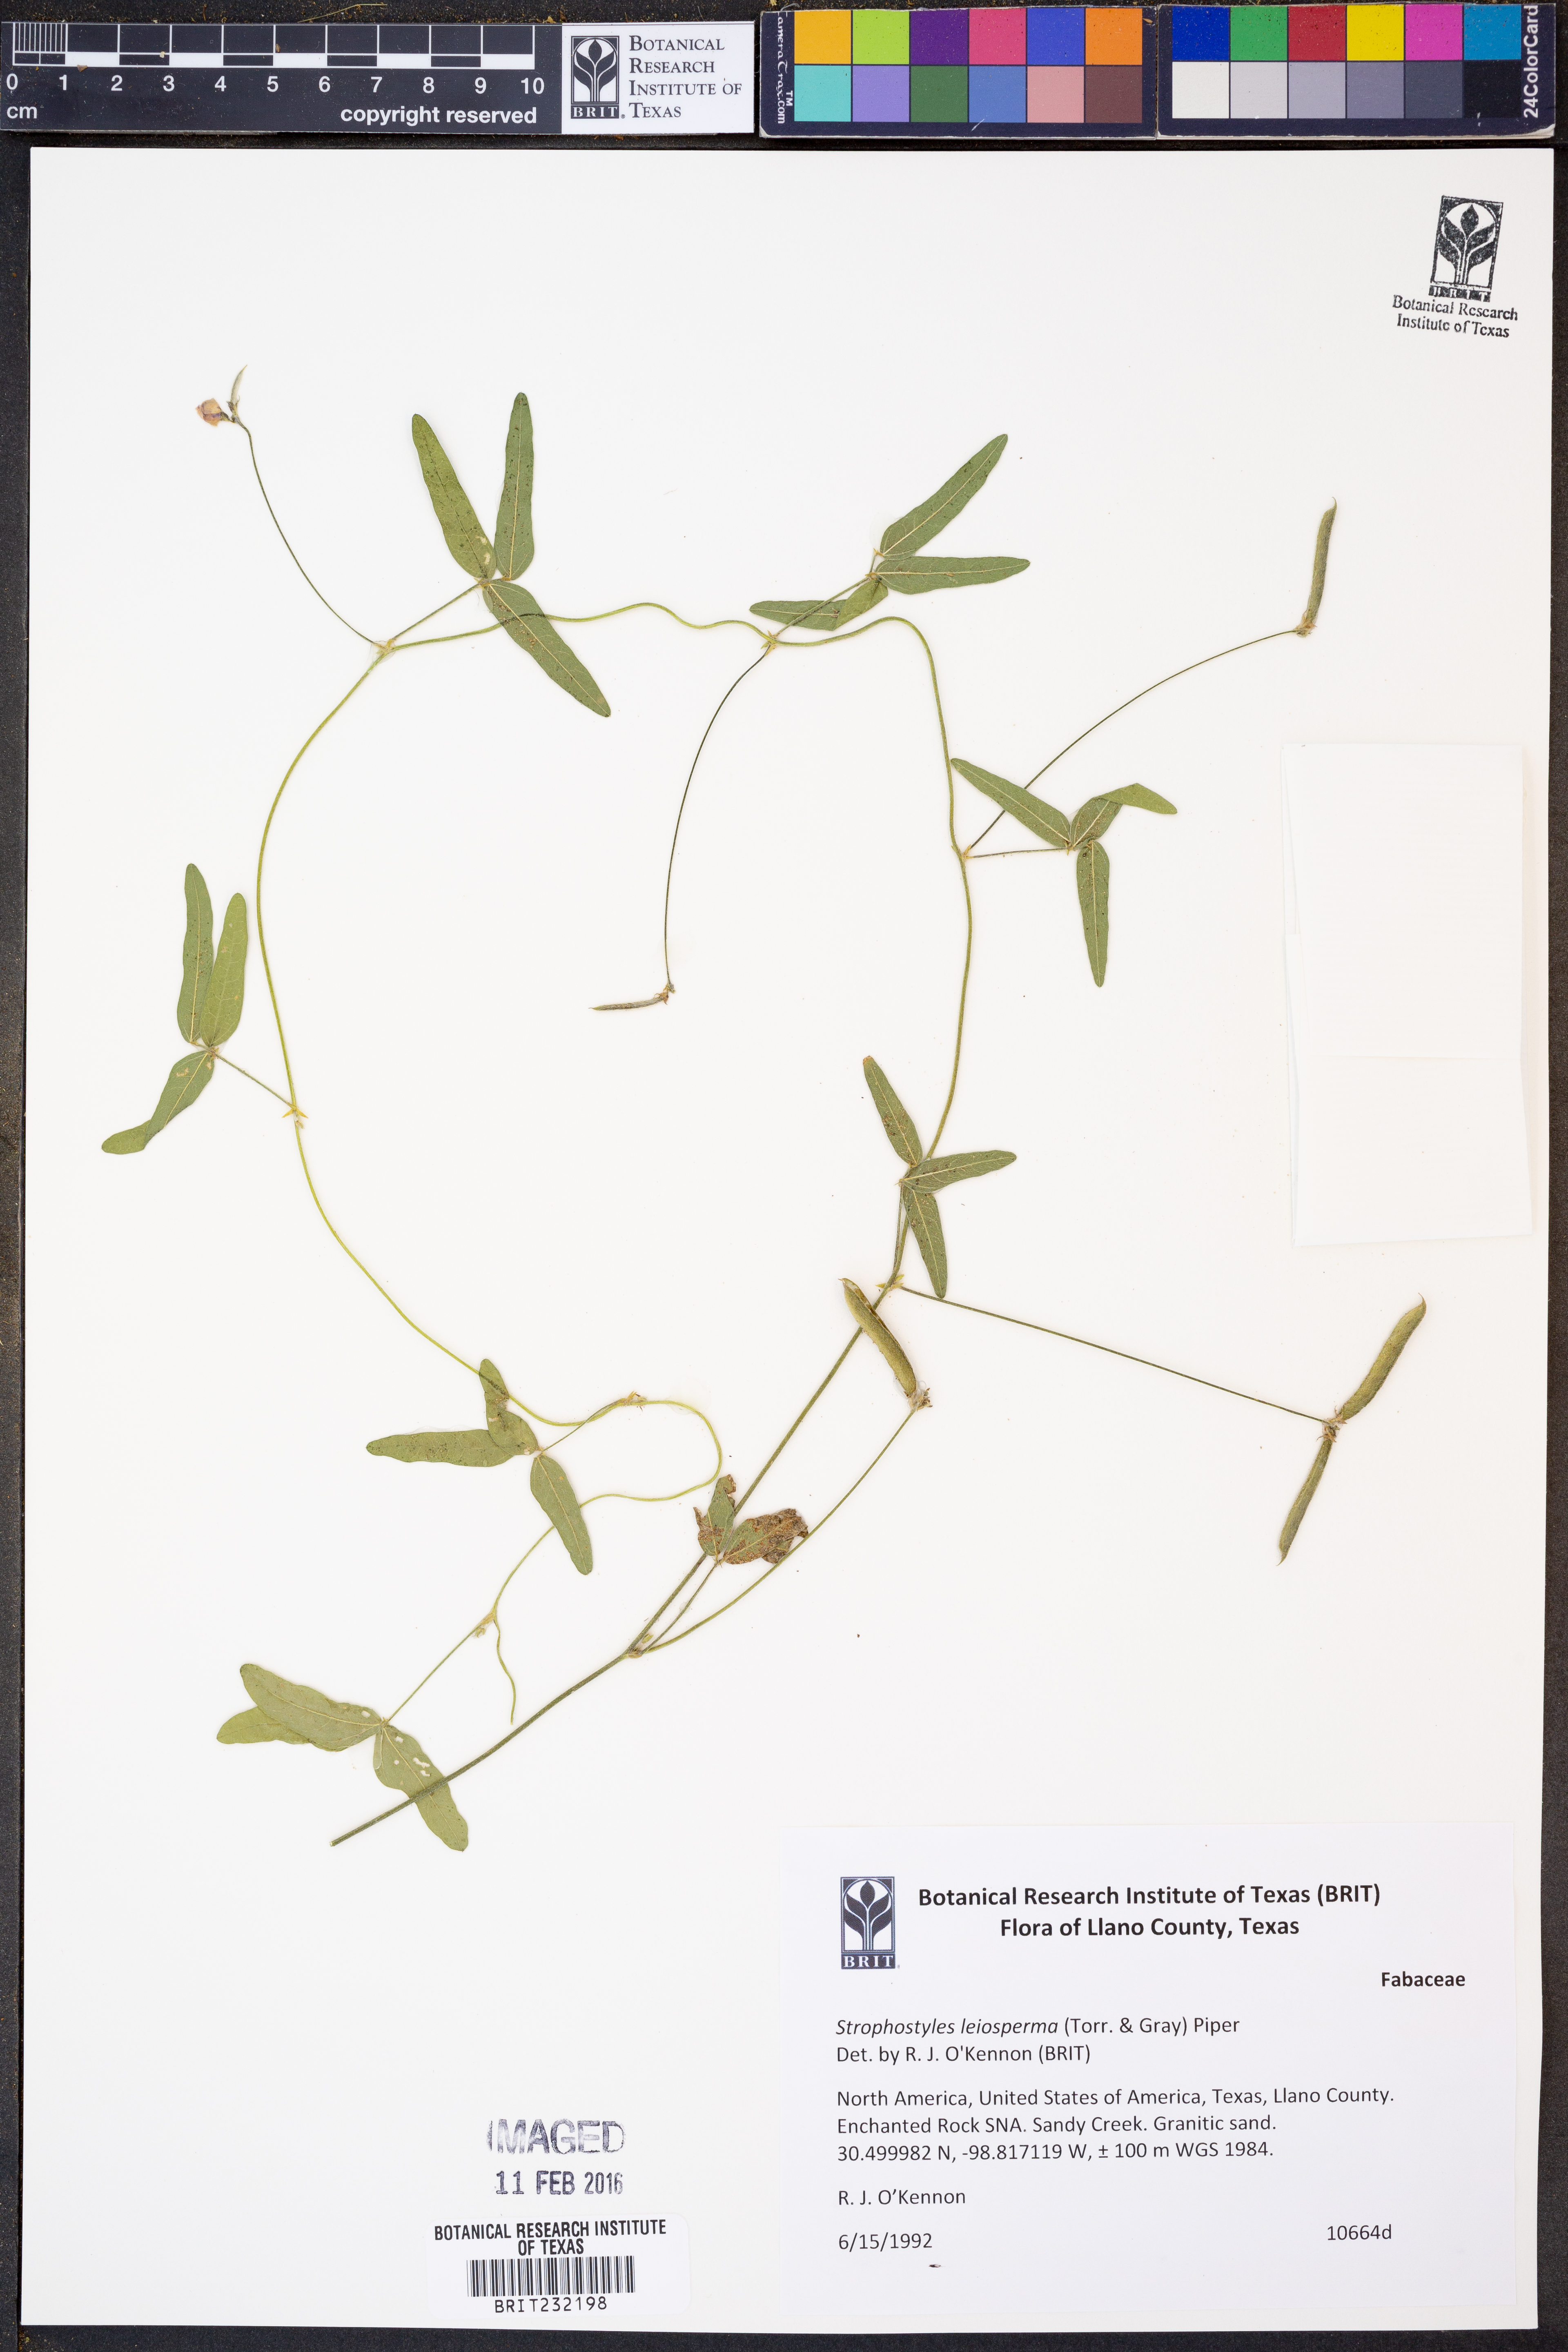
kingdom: Plantae
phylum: Tracheophyta
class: Magnoliopsida
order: Fabales
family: Fabaceae
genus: Strophostyles
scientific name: Strophostyles leiosperma
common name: Smooth-seed wild bean
